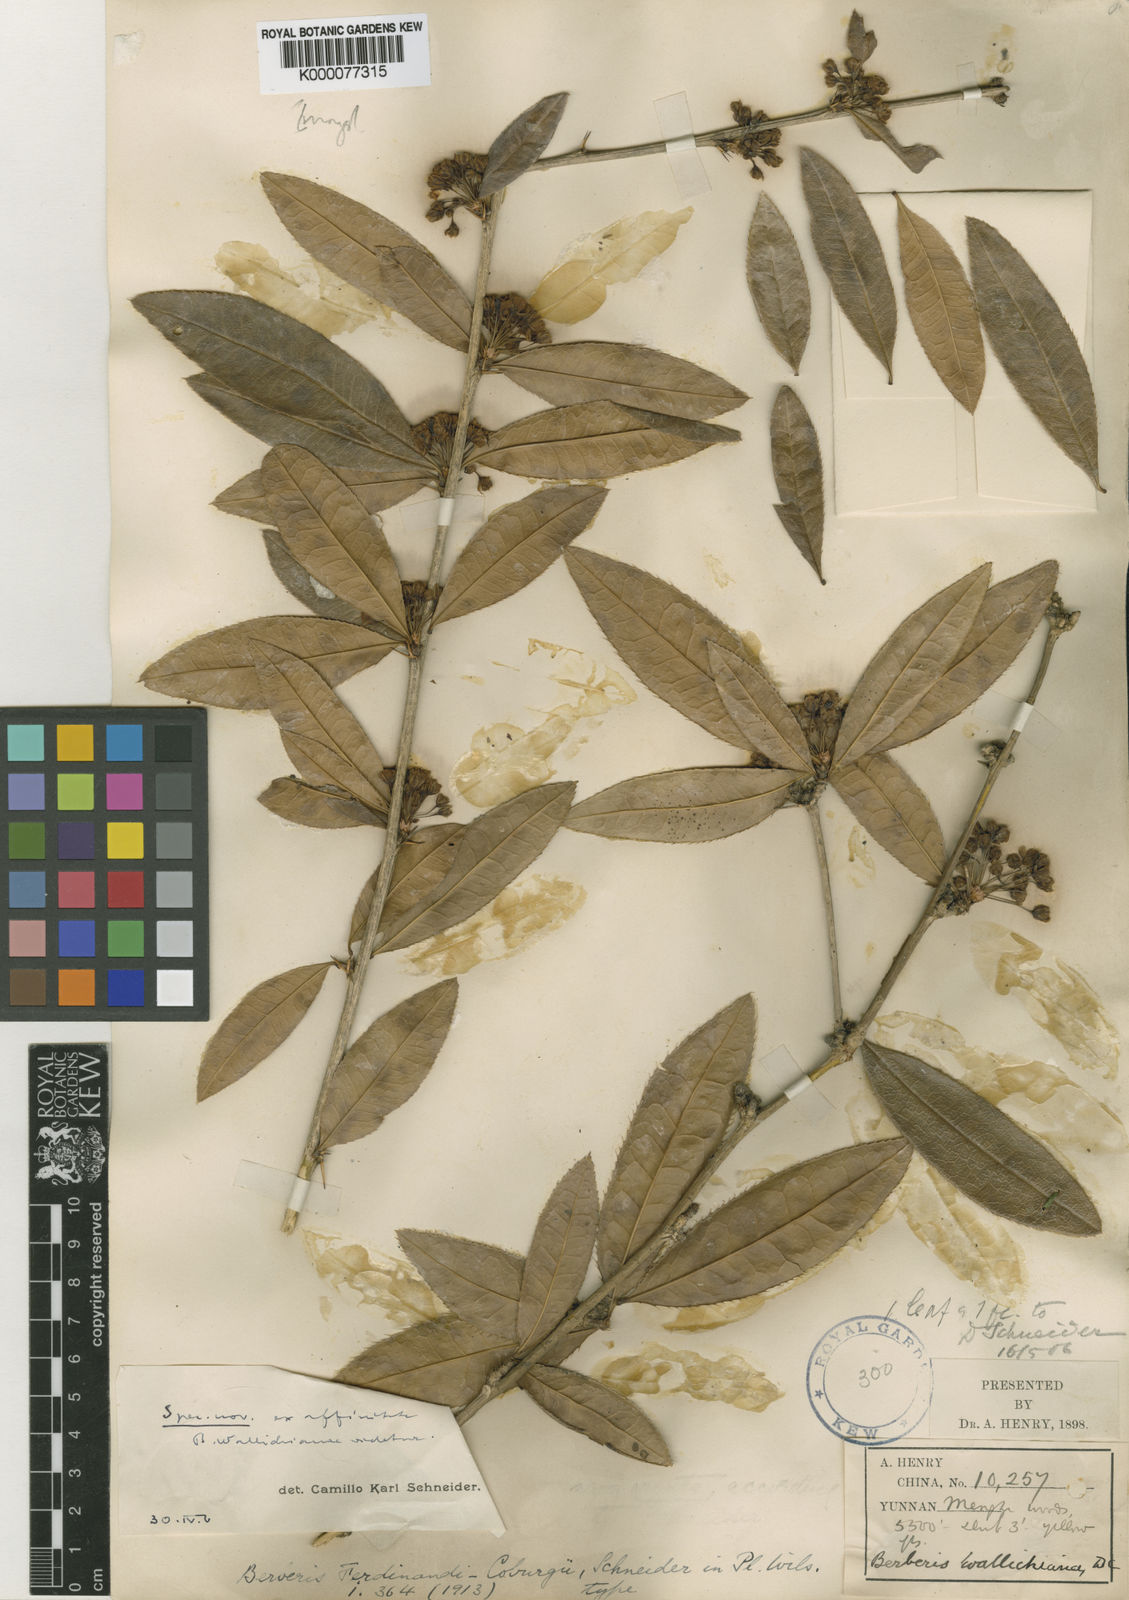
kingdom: Plantae
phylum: Tracheophyta
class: Magnoliopsida
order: Ranunculales
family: Berberidaceae
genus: Berberis
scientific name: Berberis ferdinandi-coburgii
